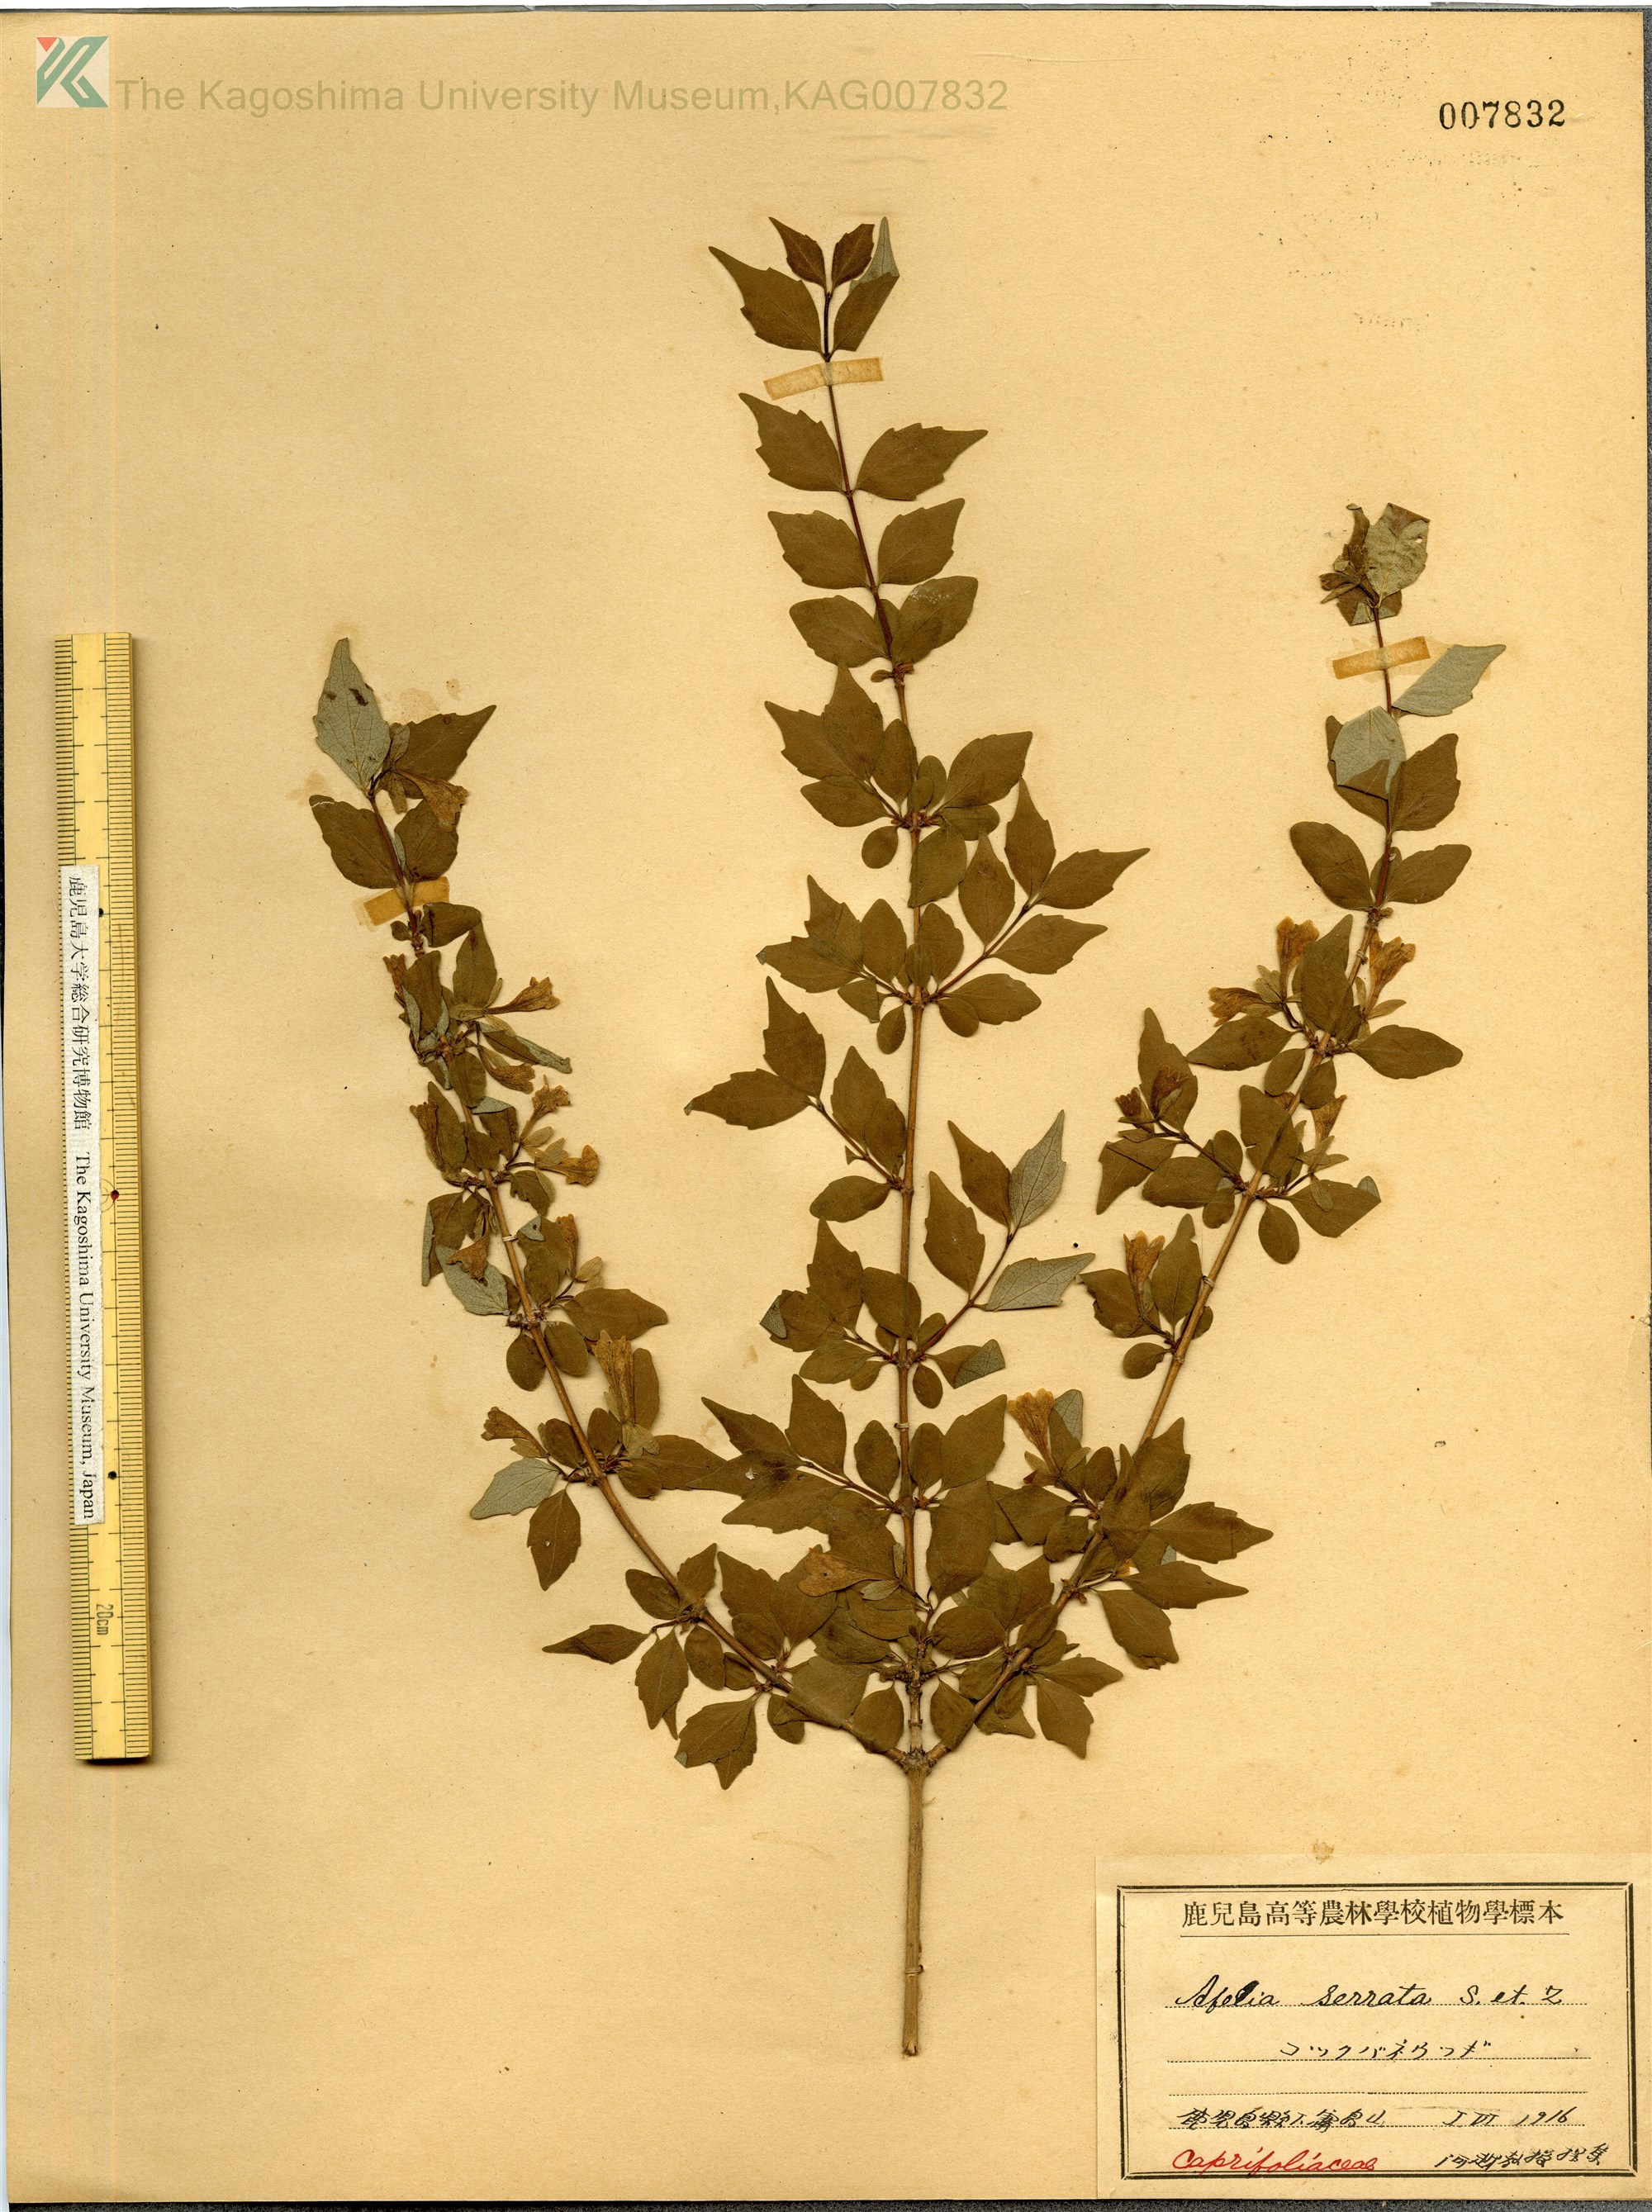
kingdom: Plantae
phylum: Tracheophyta
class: Magnoliopsida
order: Dipsacales
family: Caprifoliaceae
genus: Diabelia
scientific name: Diabelia serrata
